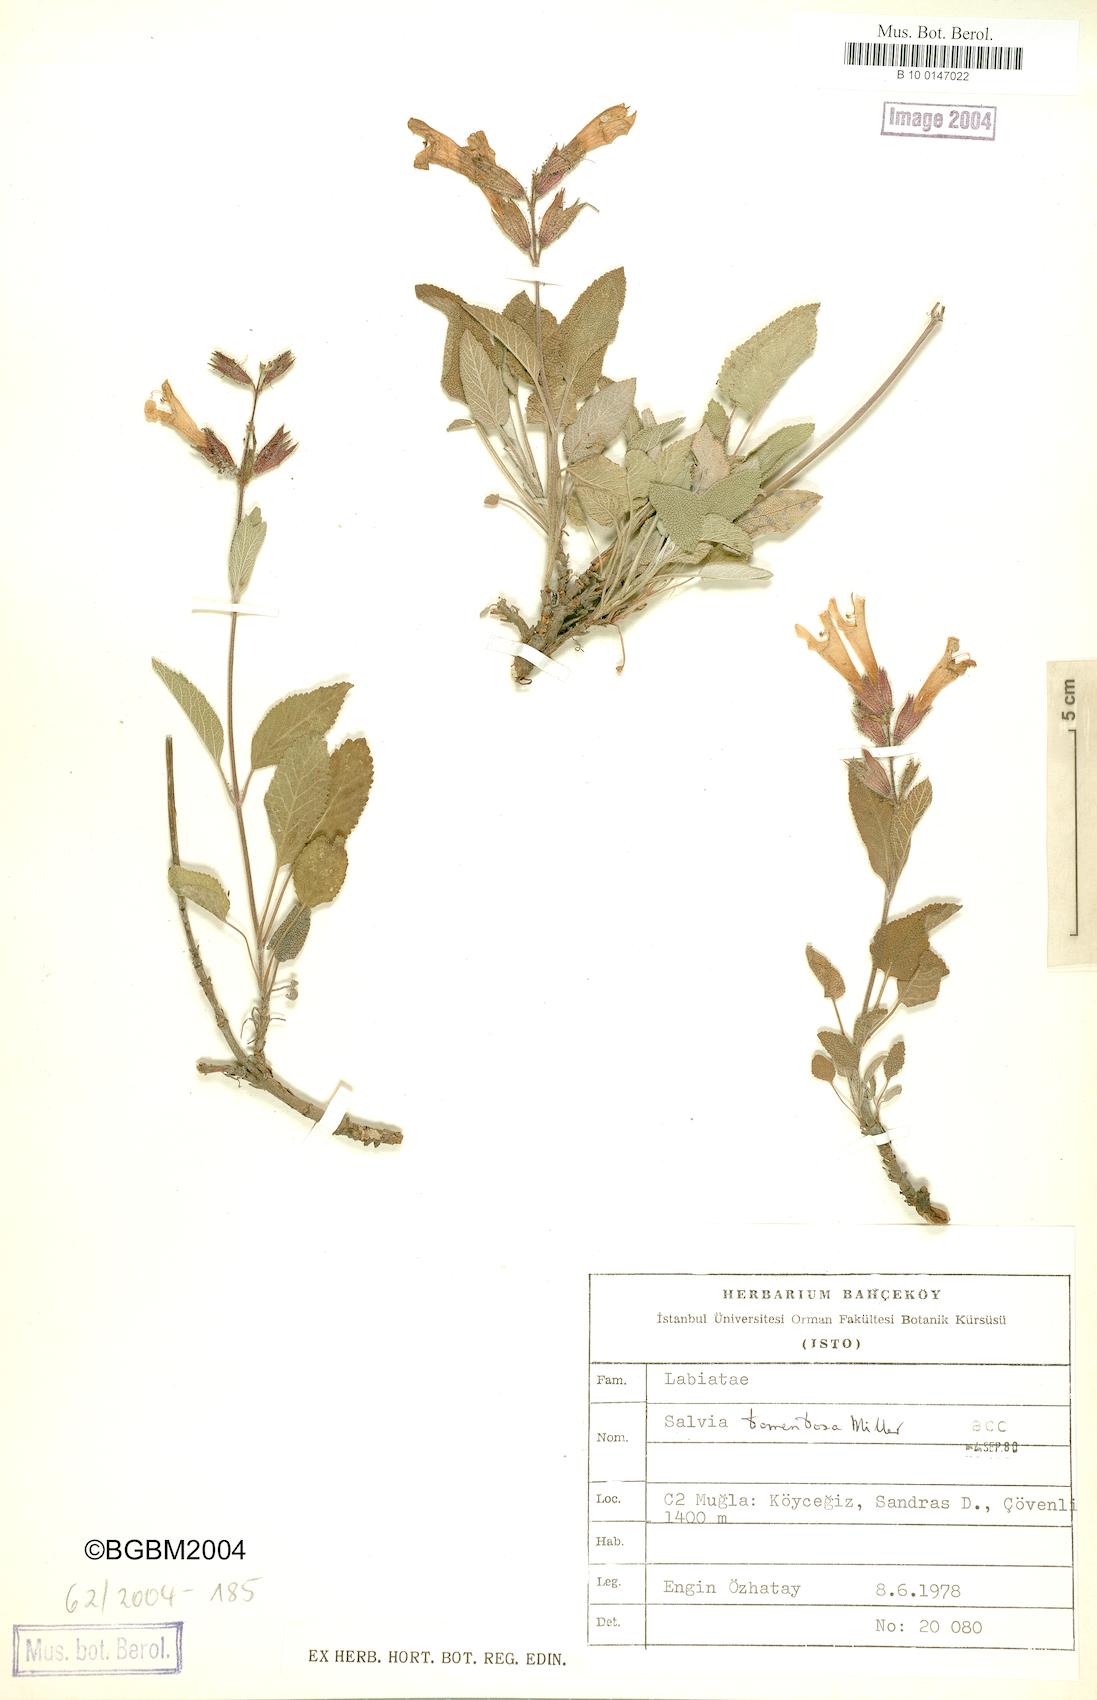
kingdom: Plantae
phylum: Tracheophyta
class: Magnoliopsida
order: Lamiales
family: Lamiaceae
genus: Salvia
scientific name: Salvia tomentosa
